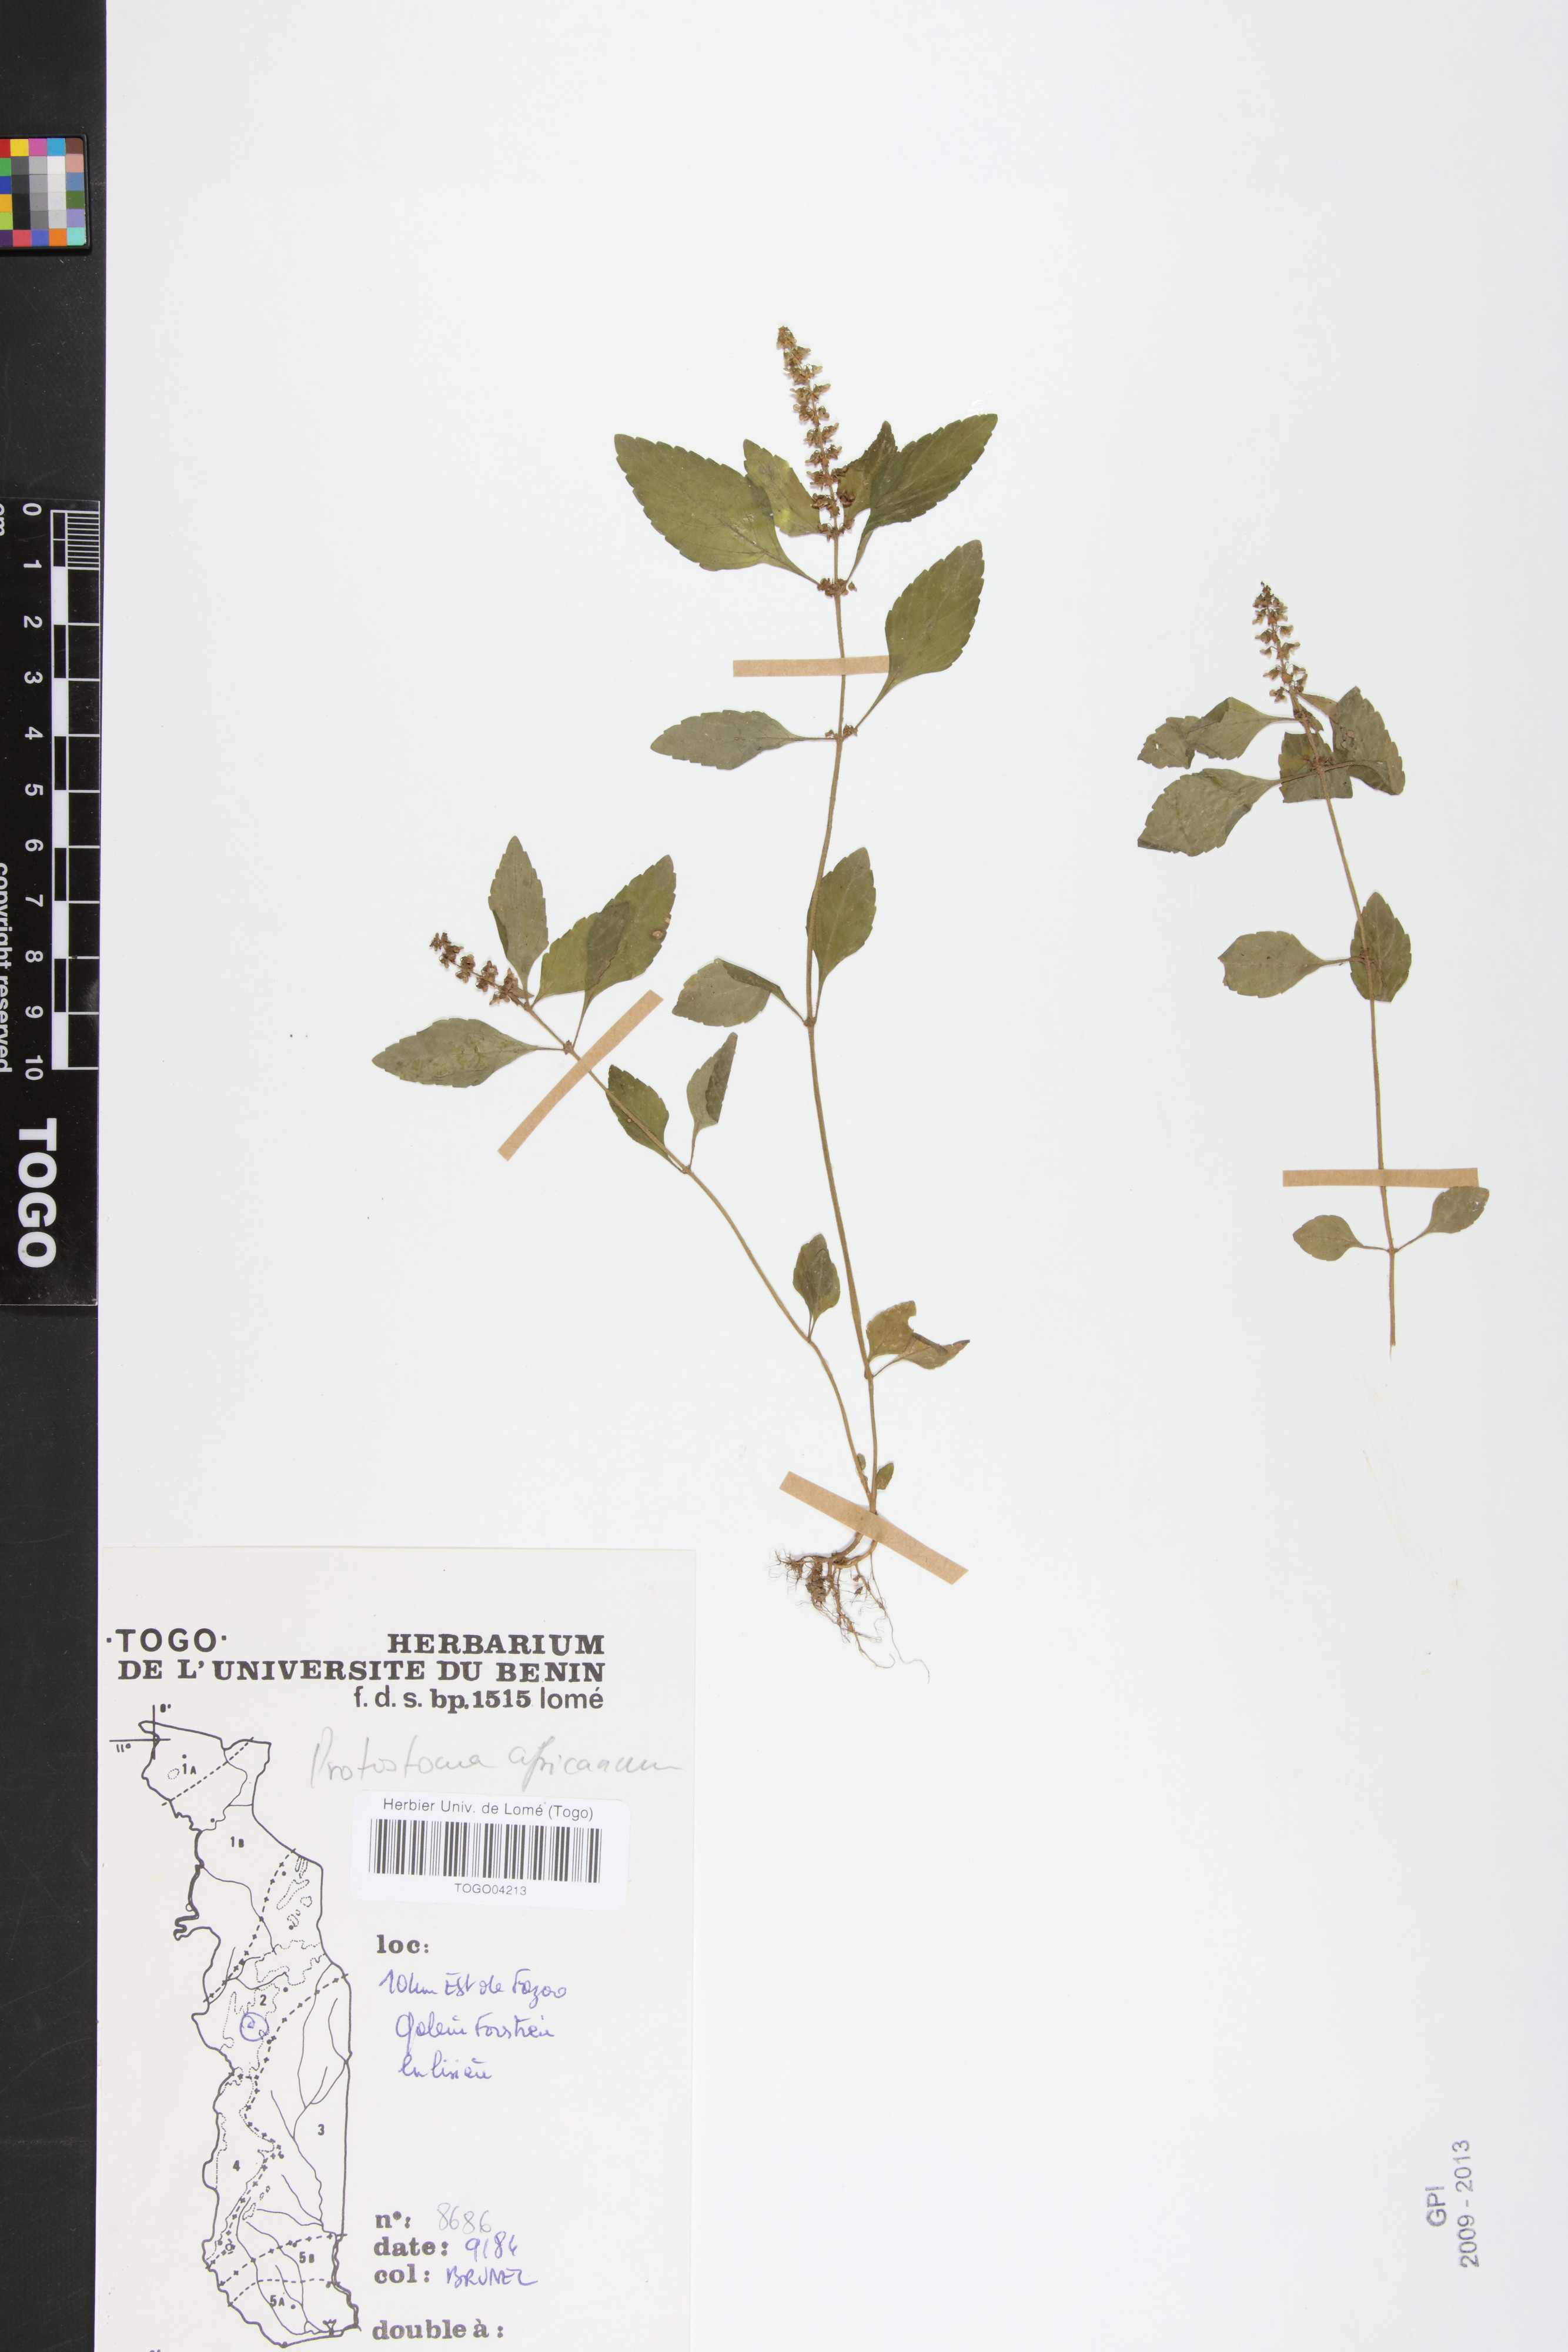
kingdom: Plantae
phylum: Tracheophyta
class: Magnoliopsida
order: Lamiales
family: Lamiaceae
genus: Platostoma
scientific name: Platostoma africanum
